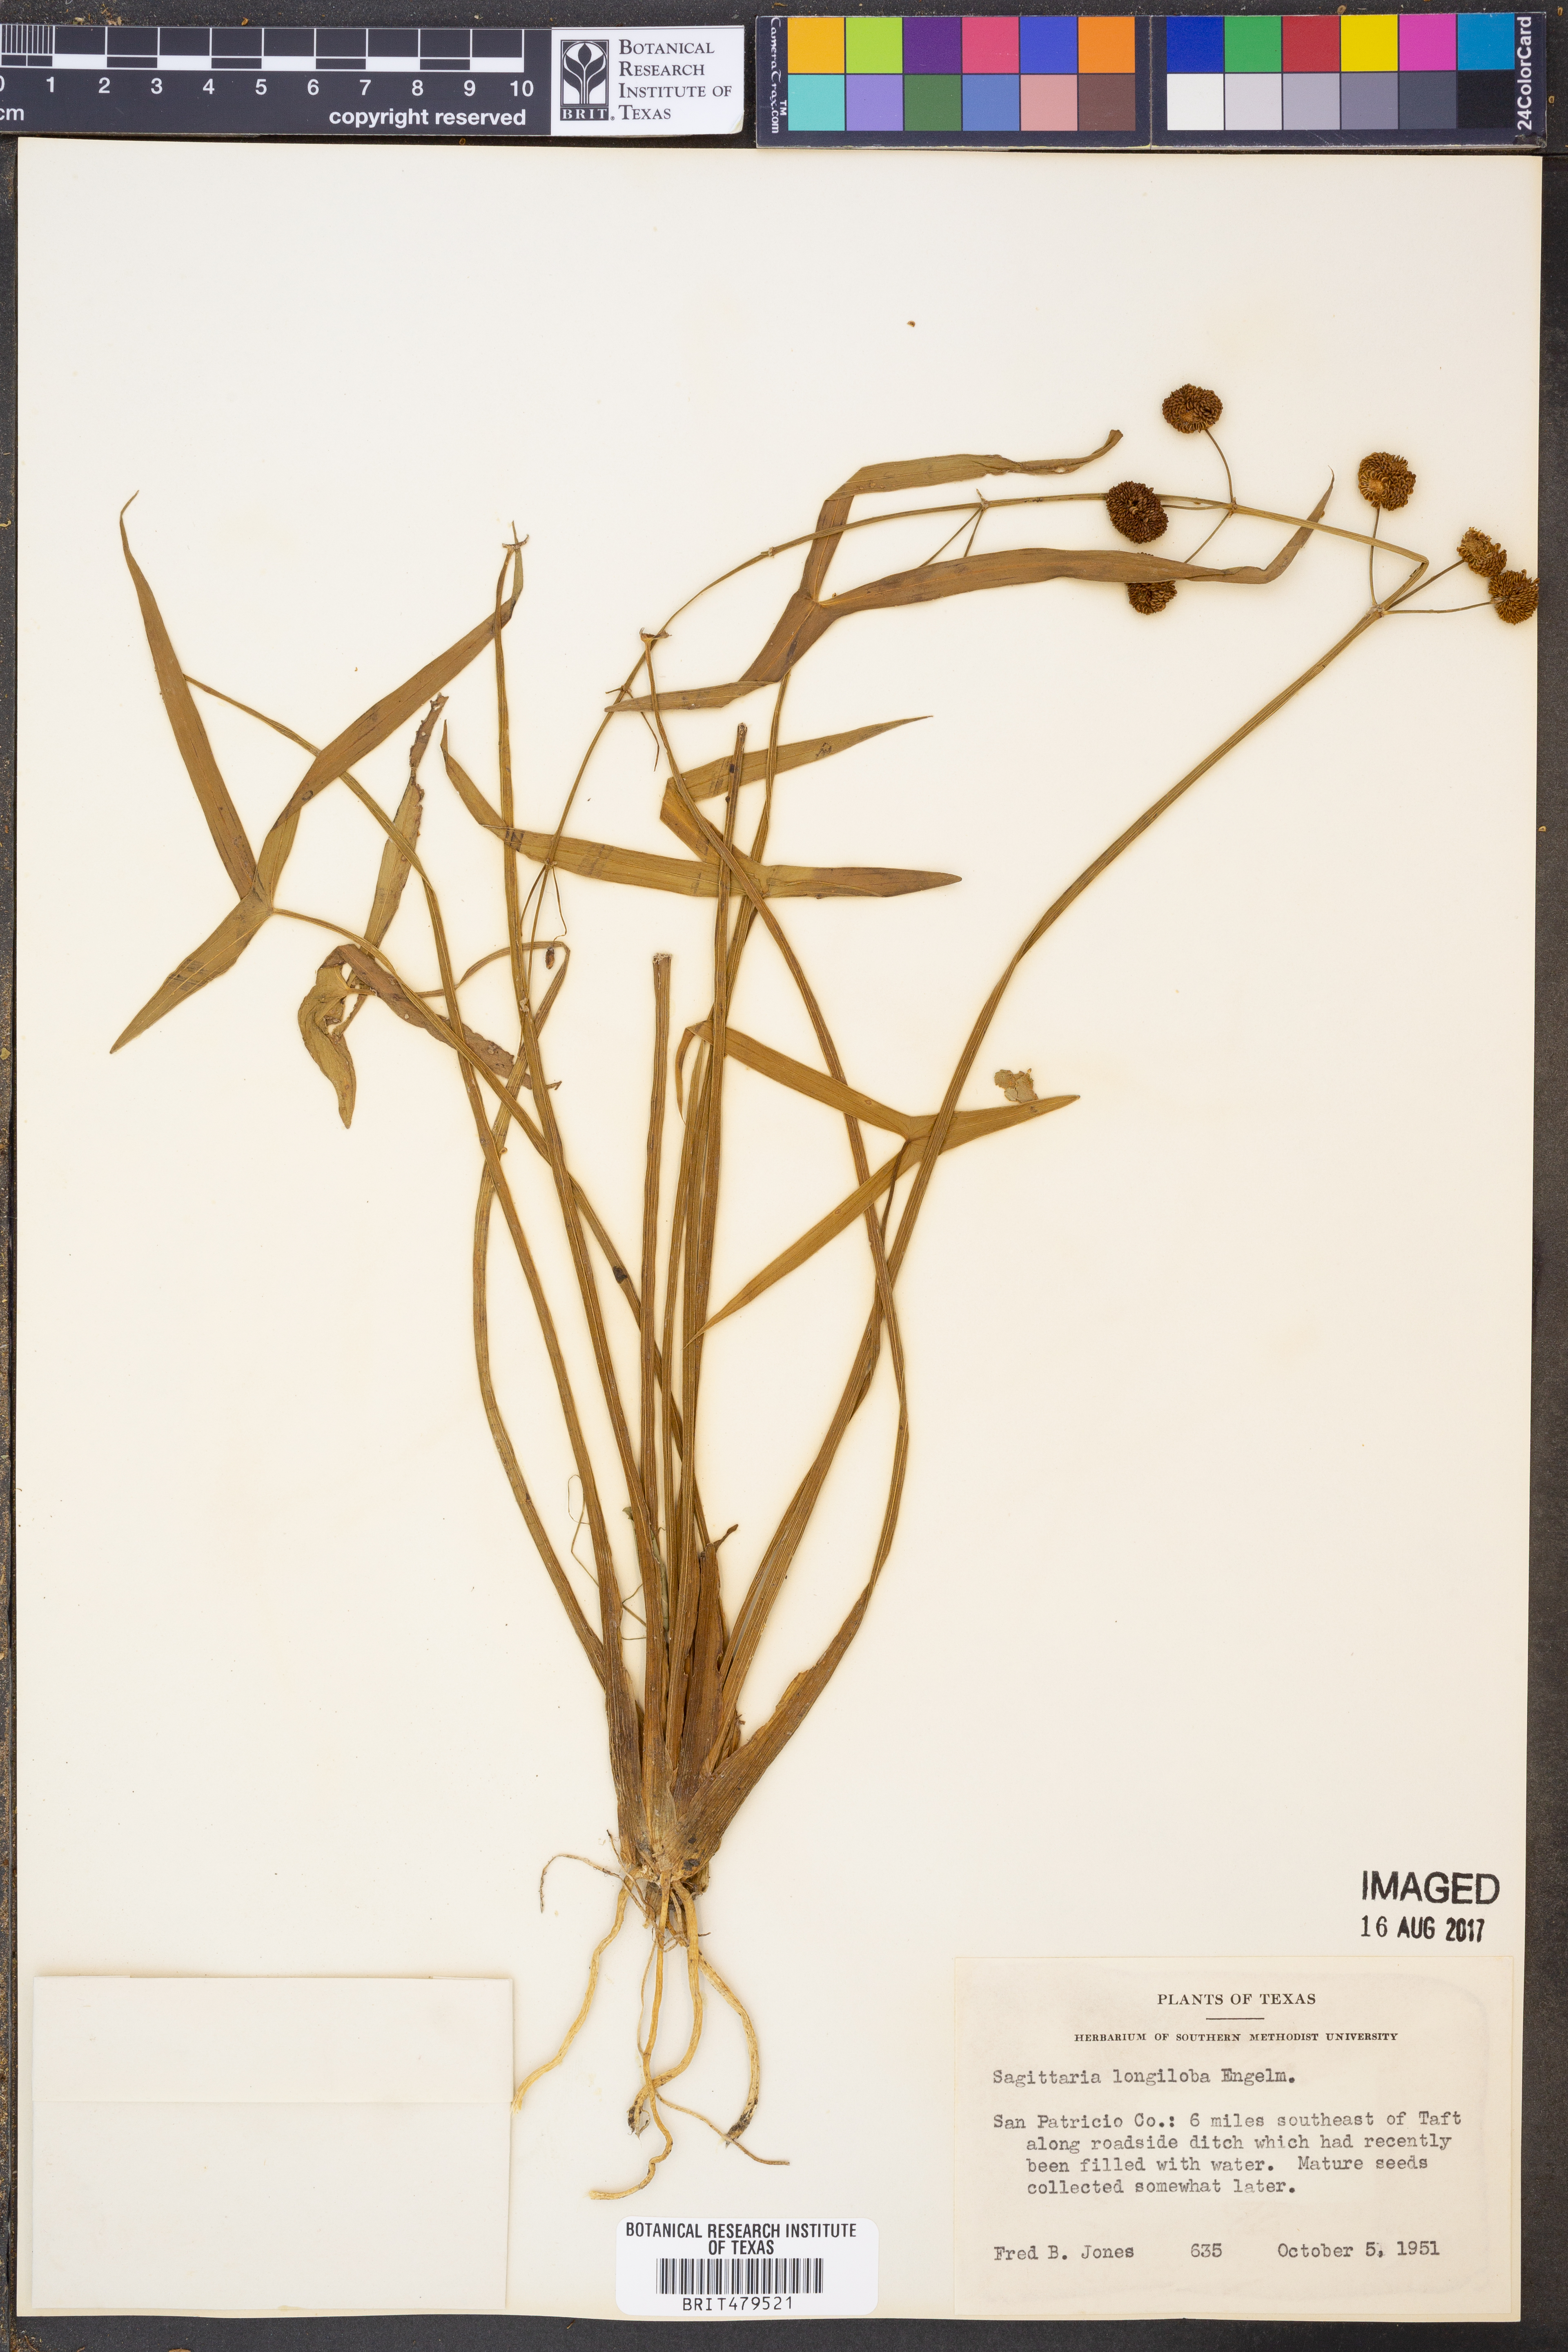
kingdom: Plantae
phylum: Tracheophyta
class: Liliopsida
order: Alismatales
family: Alismataceae
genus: Sagittaria
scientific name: Sagittaria longiloba
